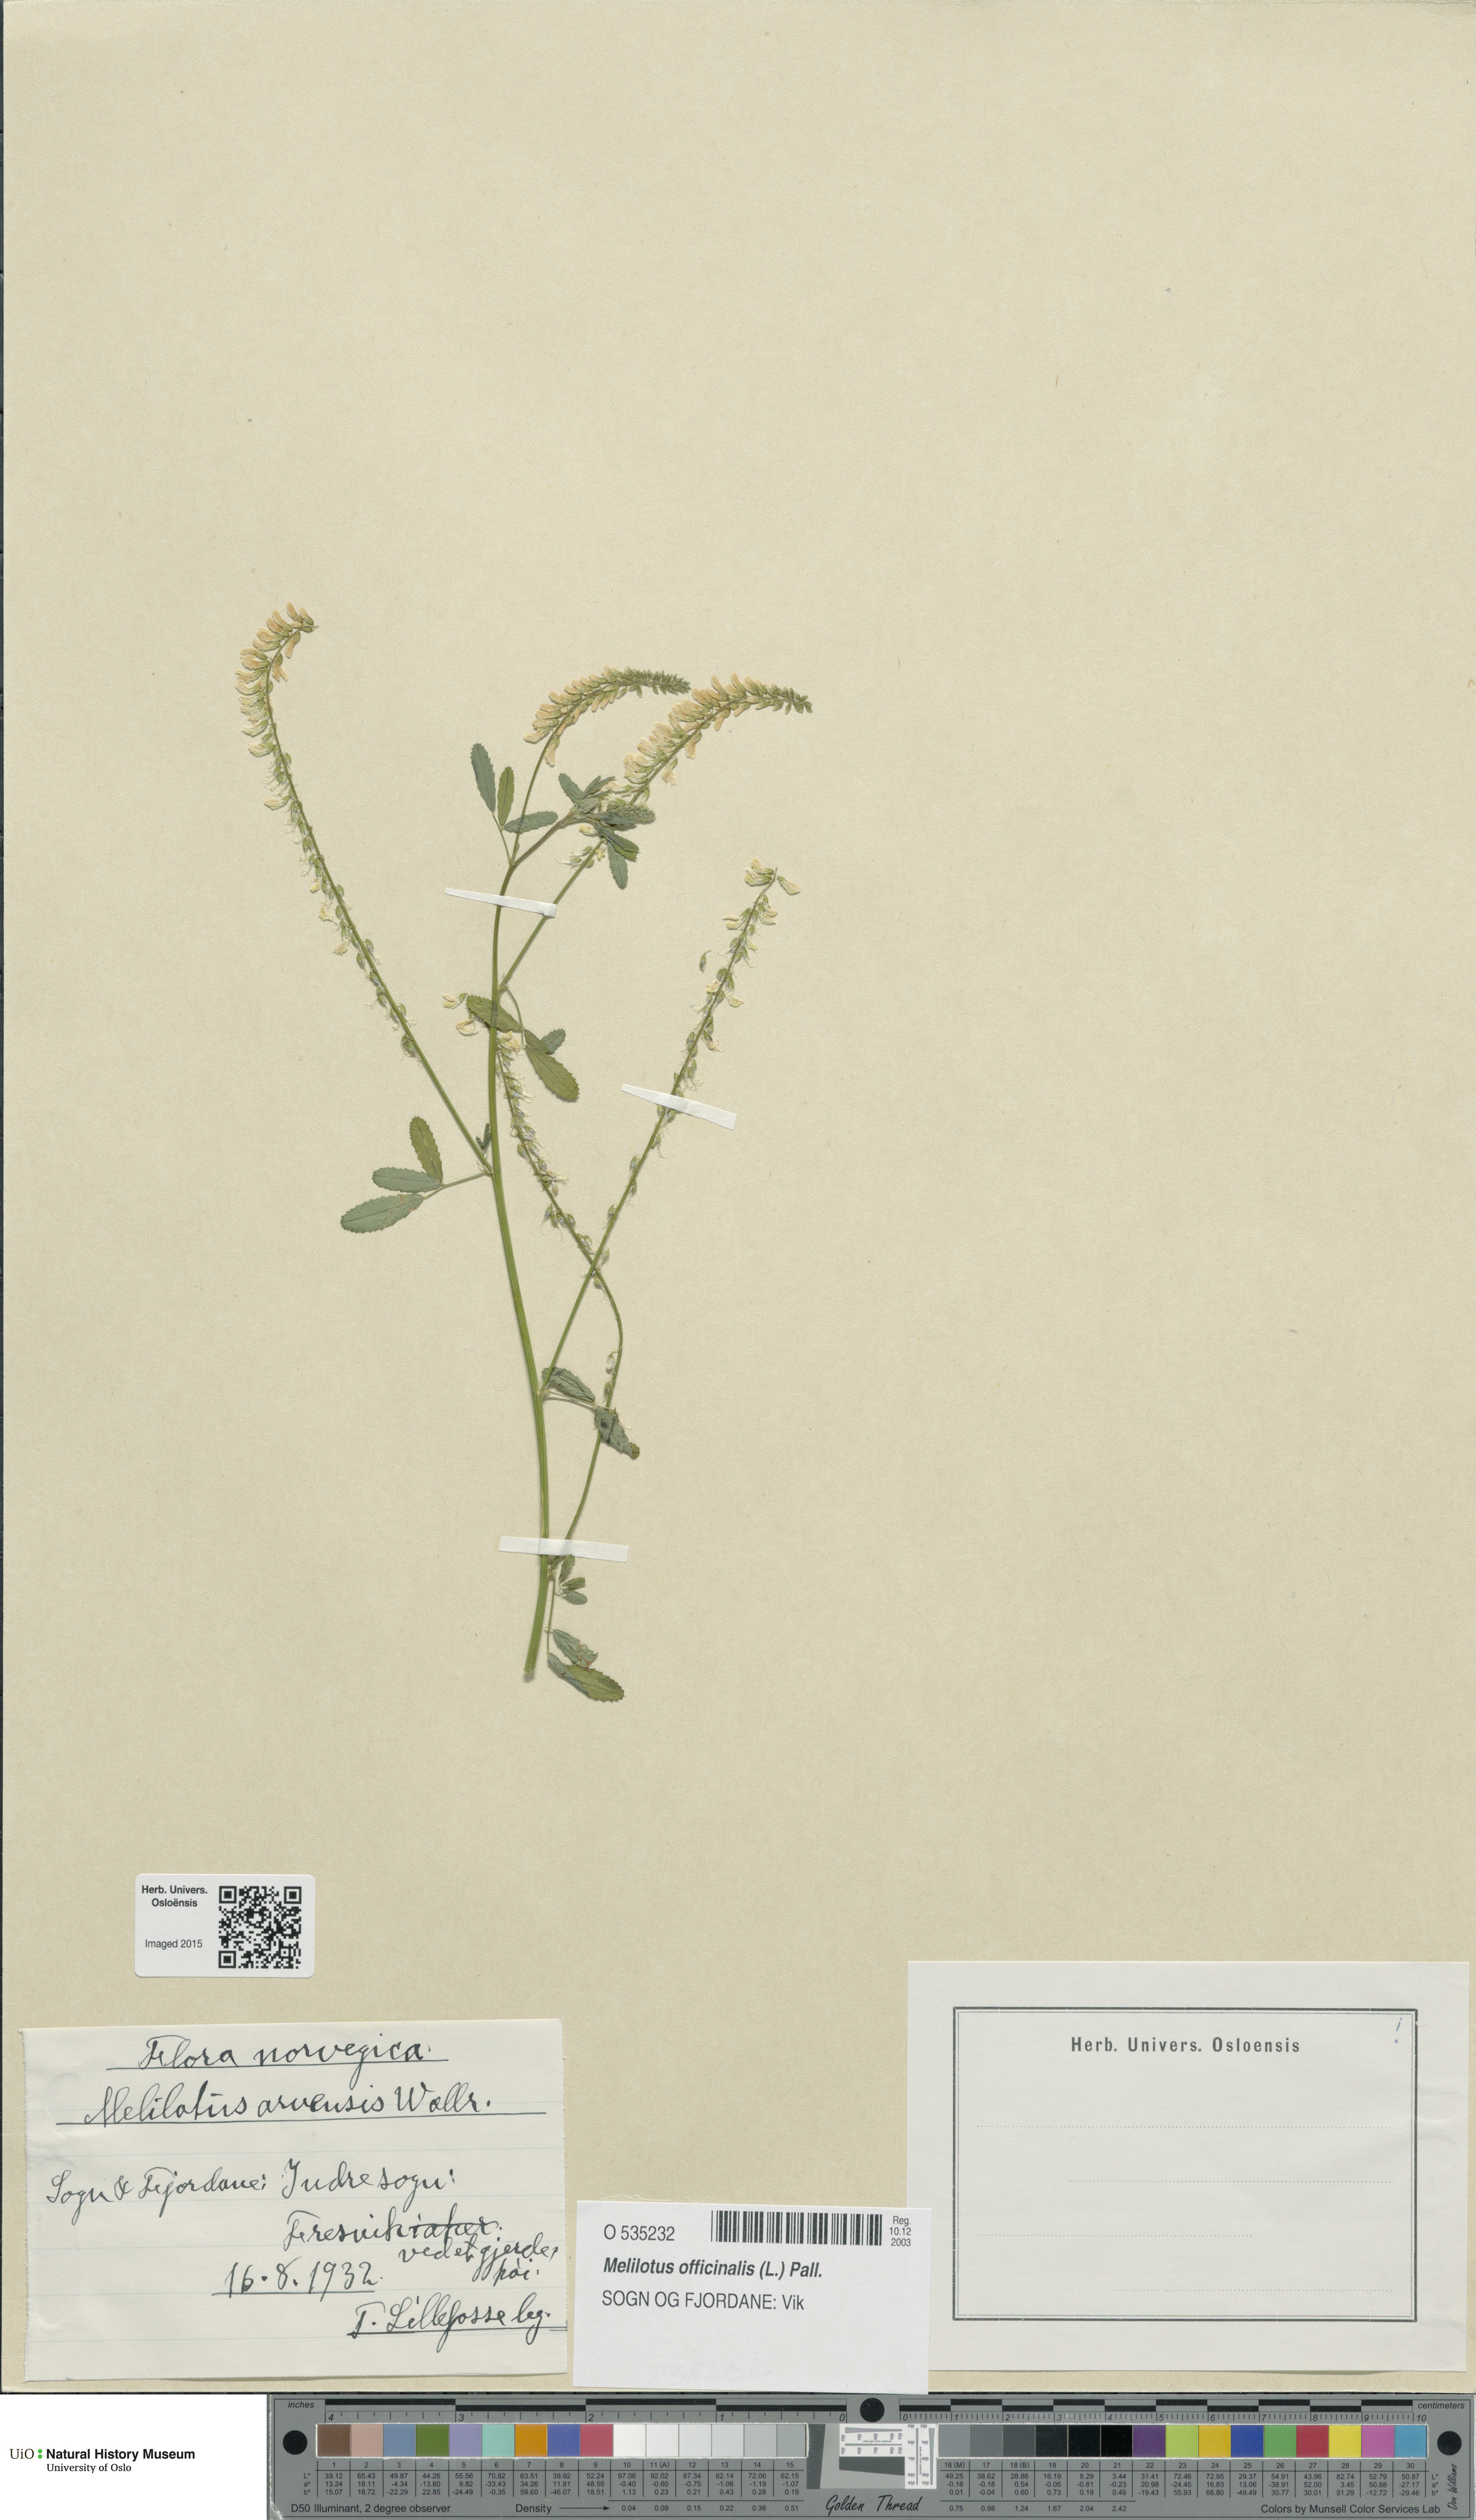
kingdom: Plantae
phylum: Tracheophyta
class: Magnoliopsida
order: Fabales
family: Fabaceae
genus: Melilotus
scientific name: Melilotus officinalis
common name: Sweetclover
